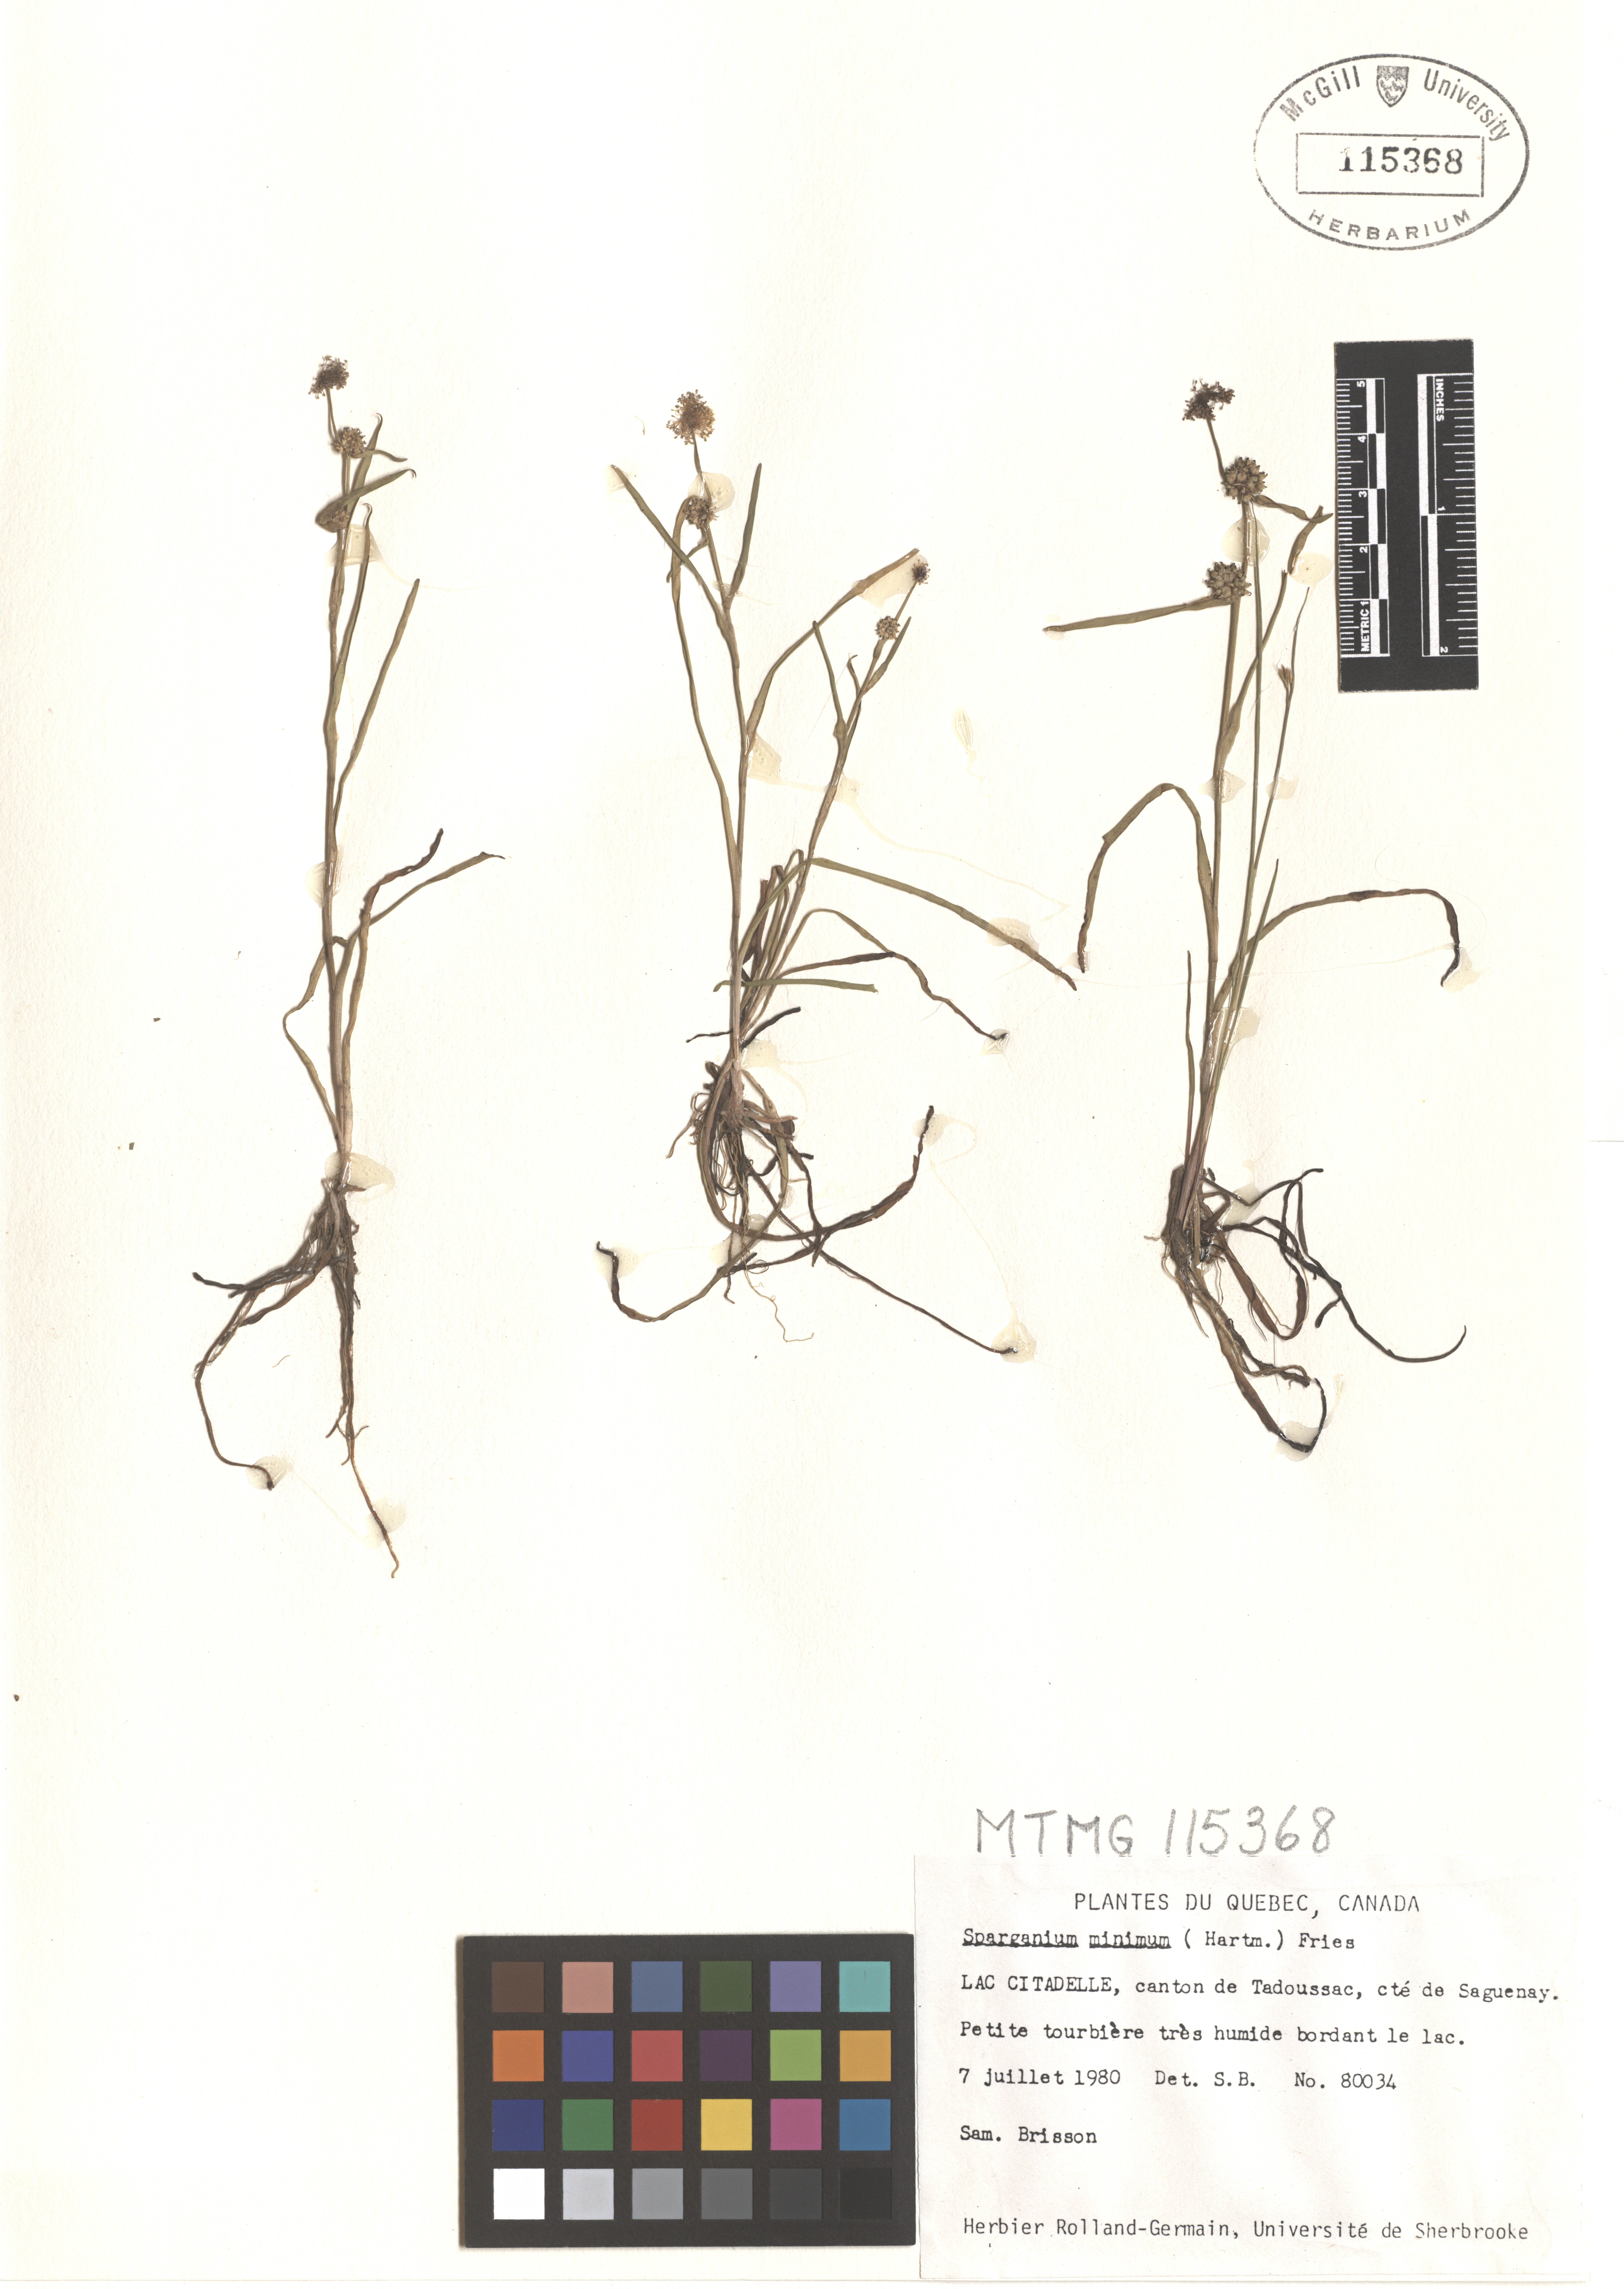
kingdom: Plantae
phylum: Tracheophyta
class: Liliopsida
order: Poales
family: Typhaceae
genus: Sparganium
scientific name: Sparganium natans
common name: Least bur-reed
